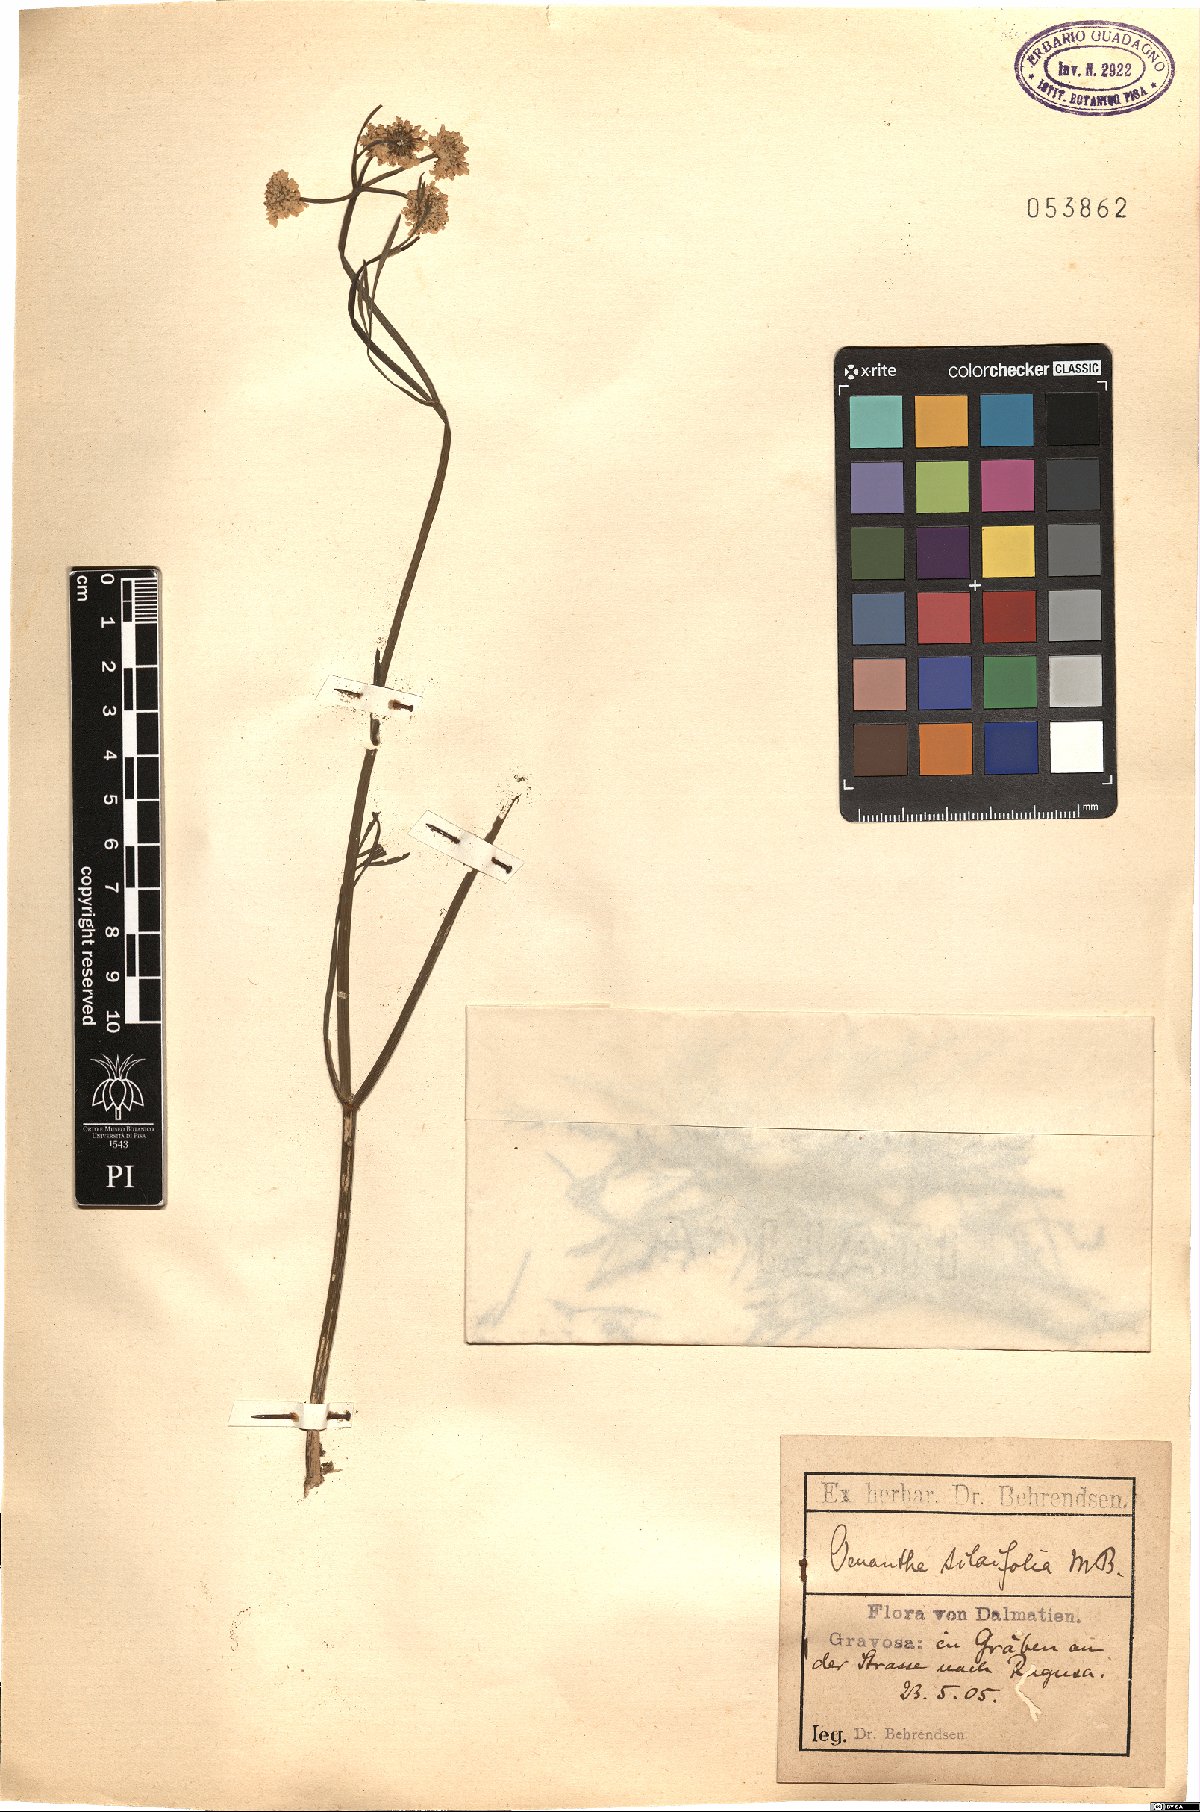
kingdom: Plantae
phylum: Tracheophyta
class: Magnoliopsida
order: Apiales
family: Apiaceae
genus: Oenanthe
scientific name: Oenanthe silaifolia
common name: Narrow-leaved water-dropwort
